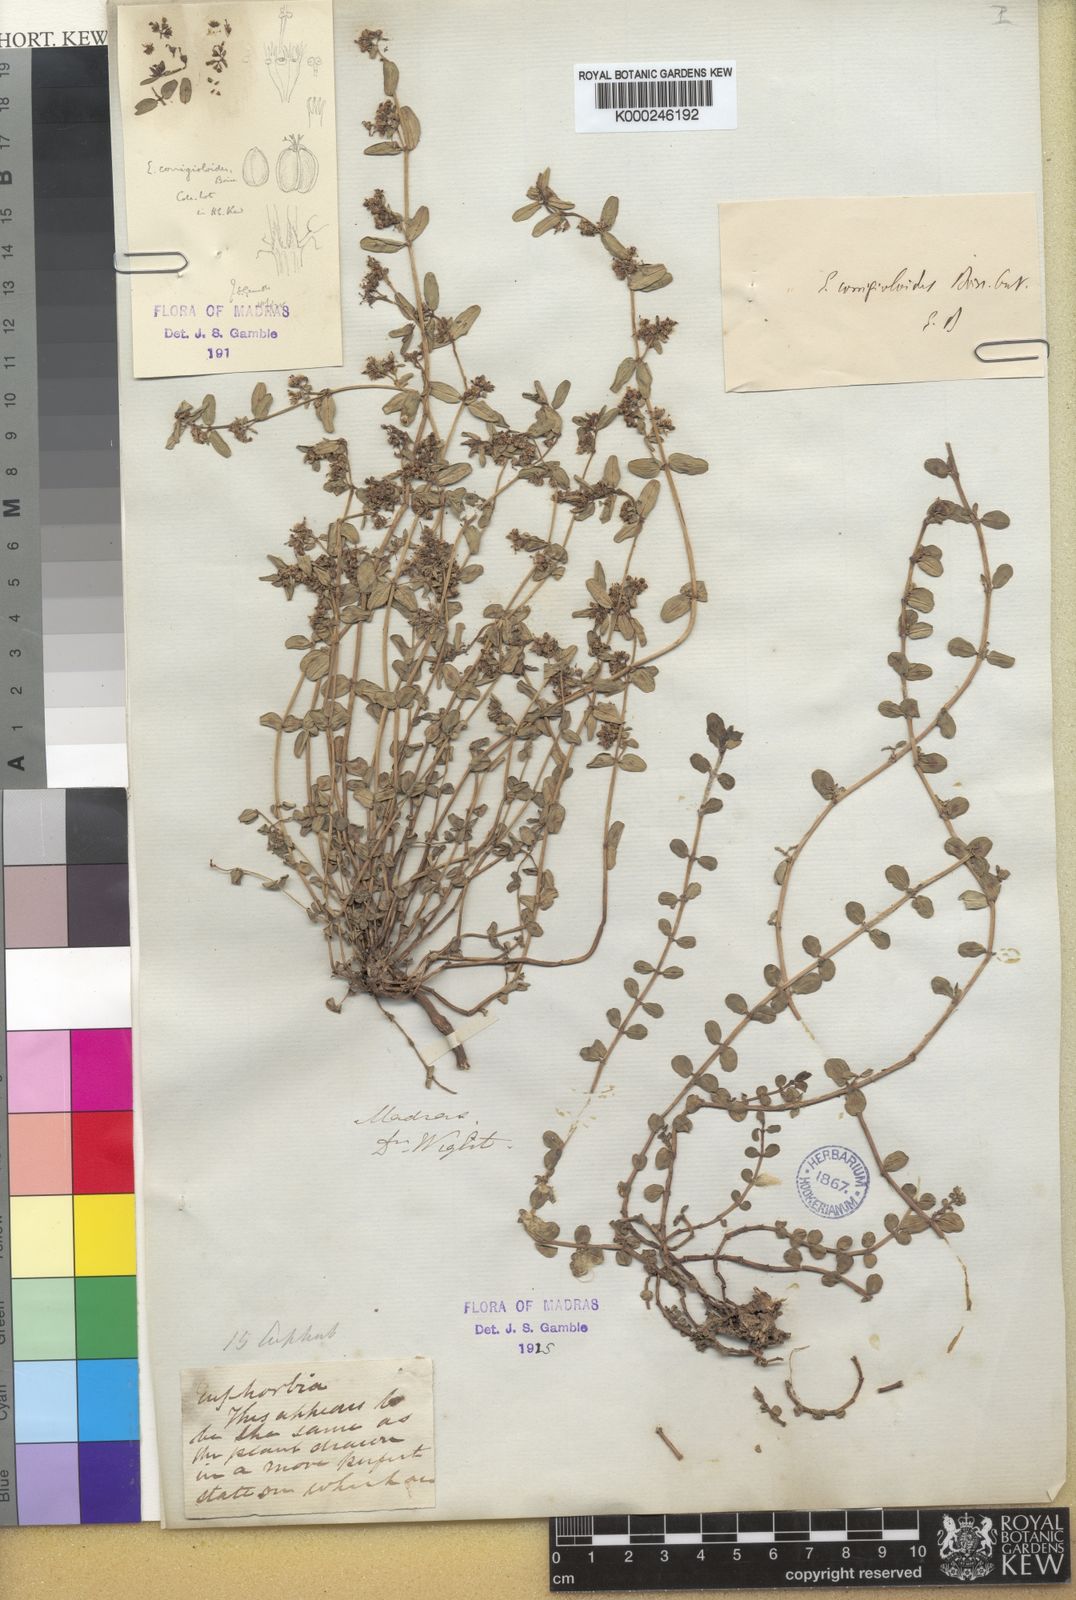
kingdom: Plantae
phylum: Tracheophyta
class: Magnoliopsida
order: Malpighiales
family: Euphorbiaceae
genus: Euphorbia
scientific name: Euphorbia glaucescens
